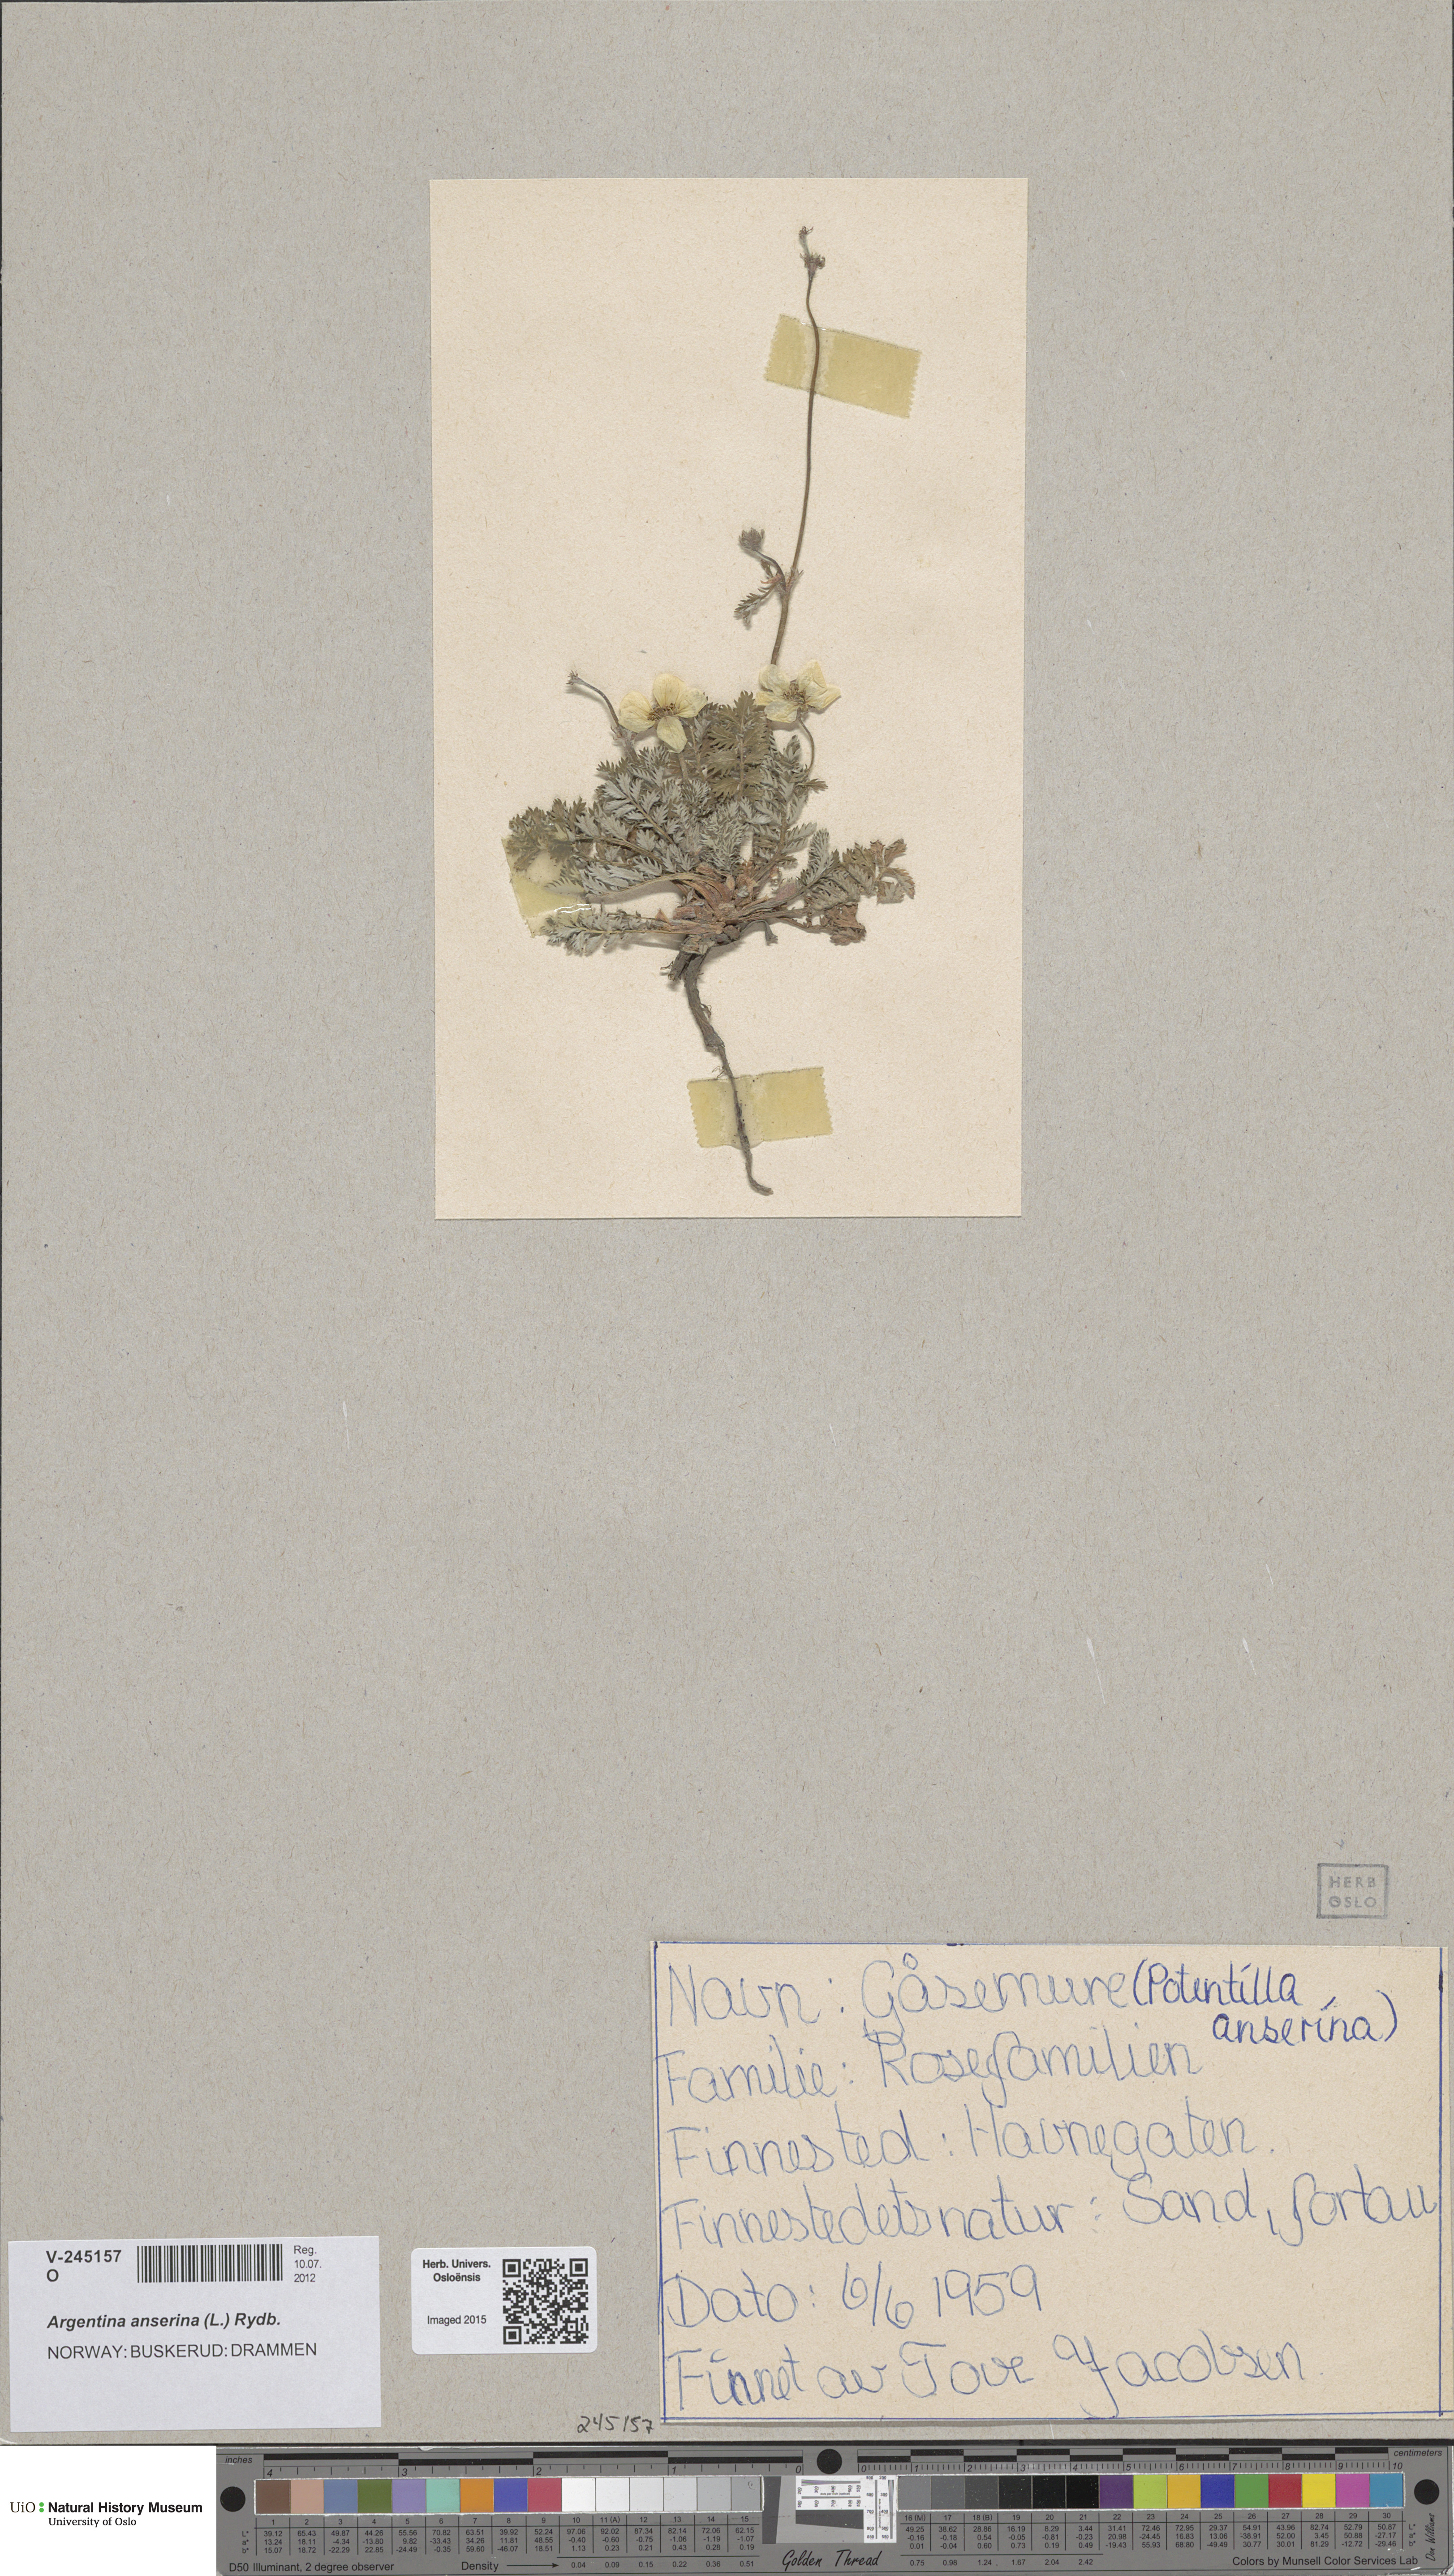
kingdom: Plantae
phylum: Tracheophyta
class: Magnoliopsida
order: Rosales
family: Rosaceae
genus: Argentina
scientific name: Argentina anserina
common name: Common silverweed
